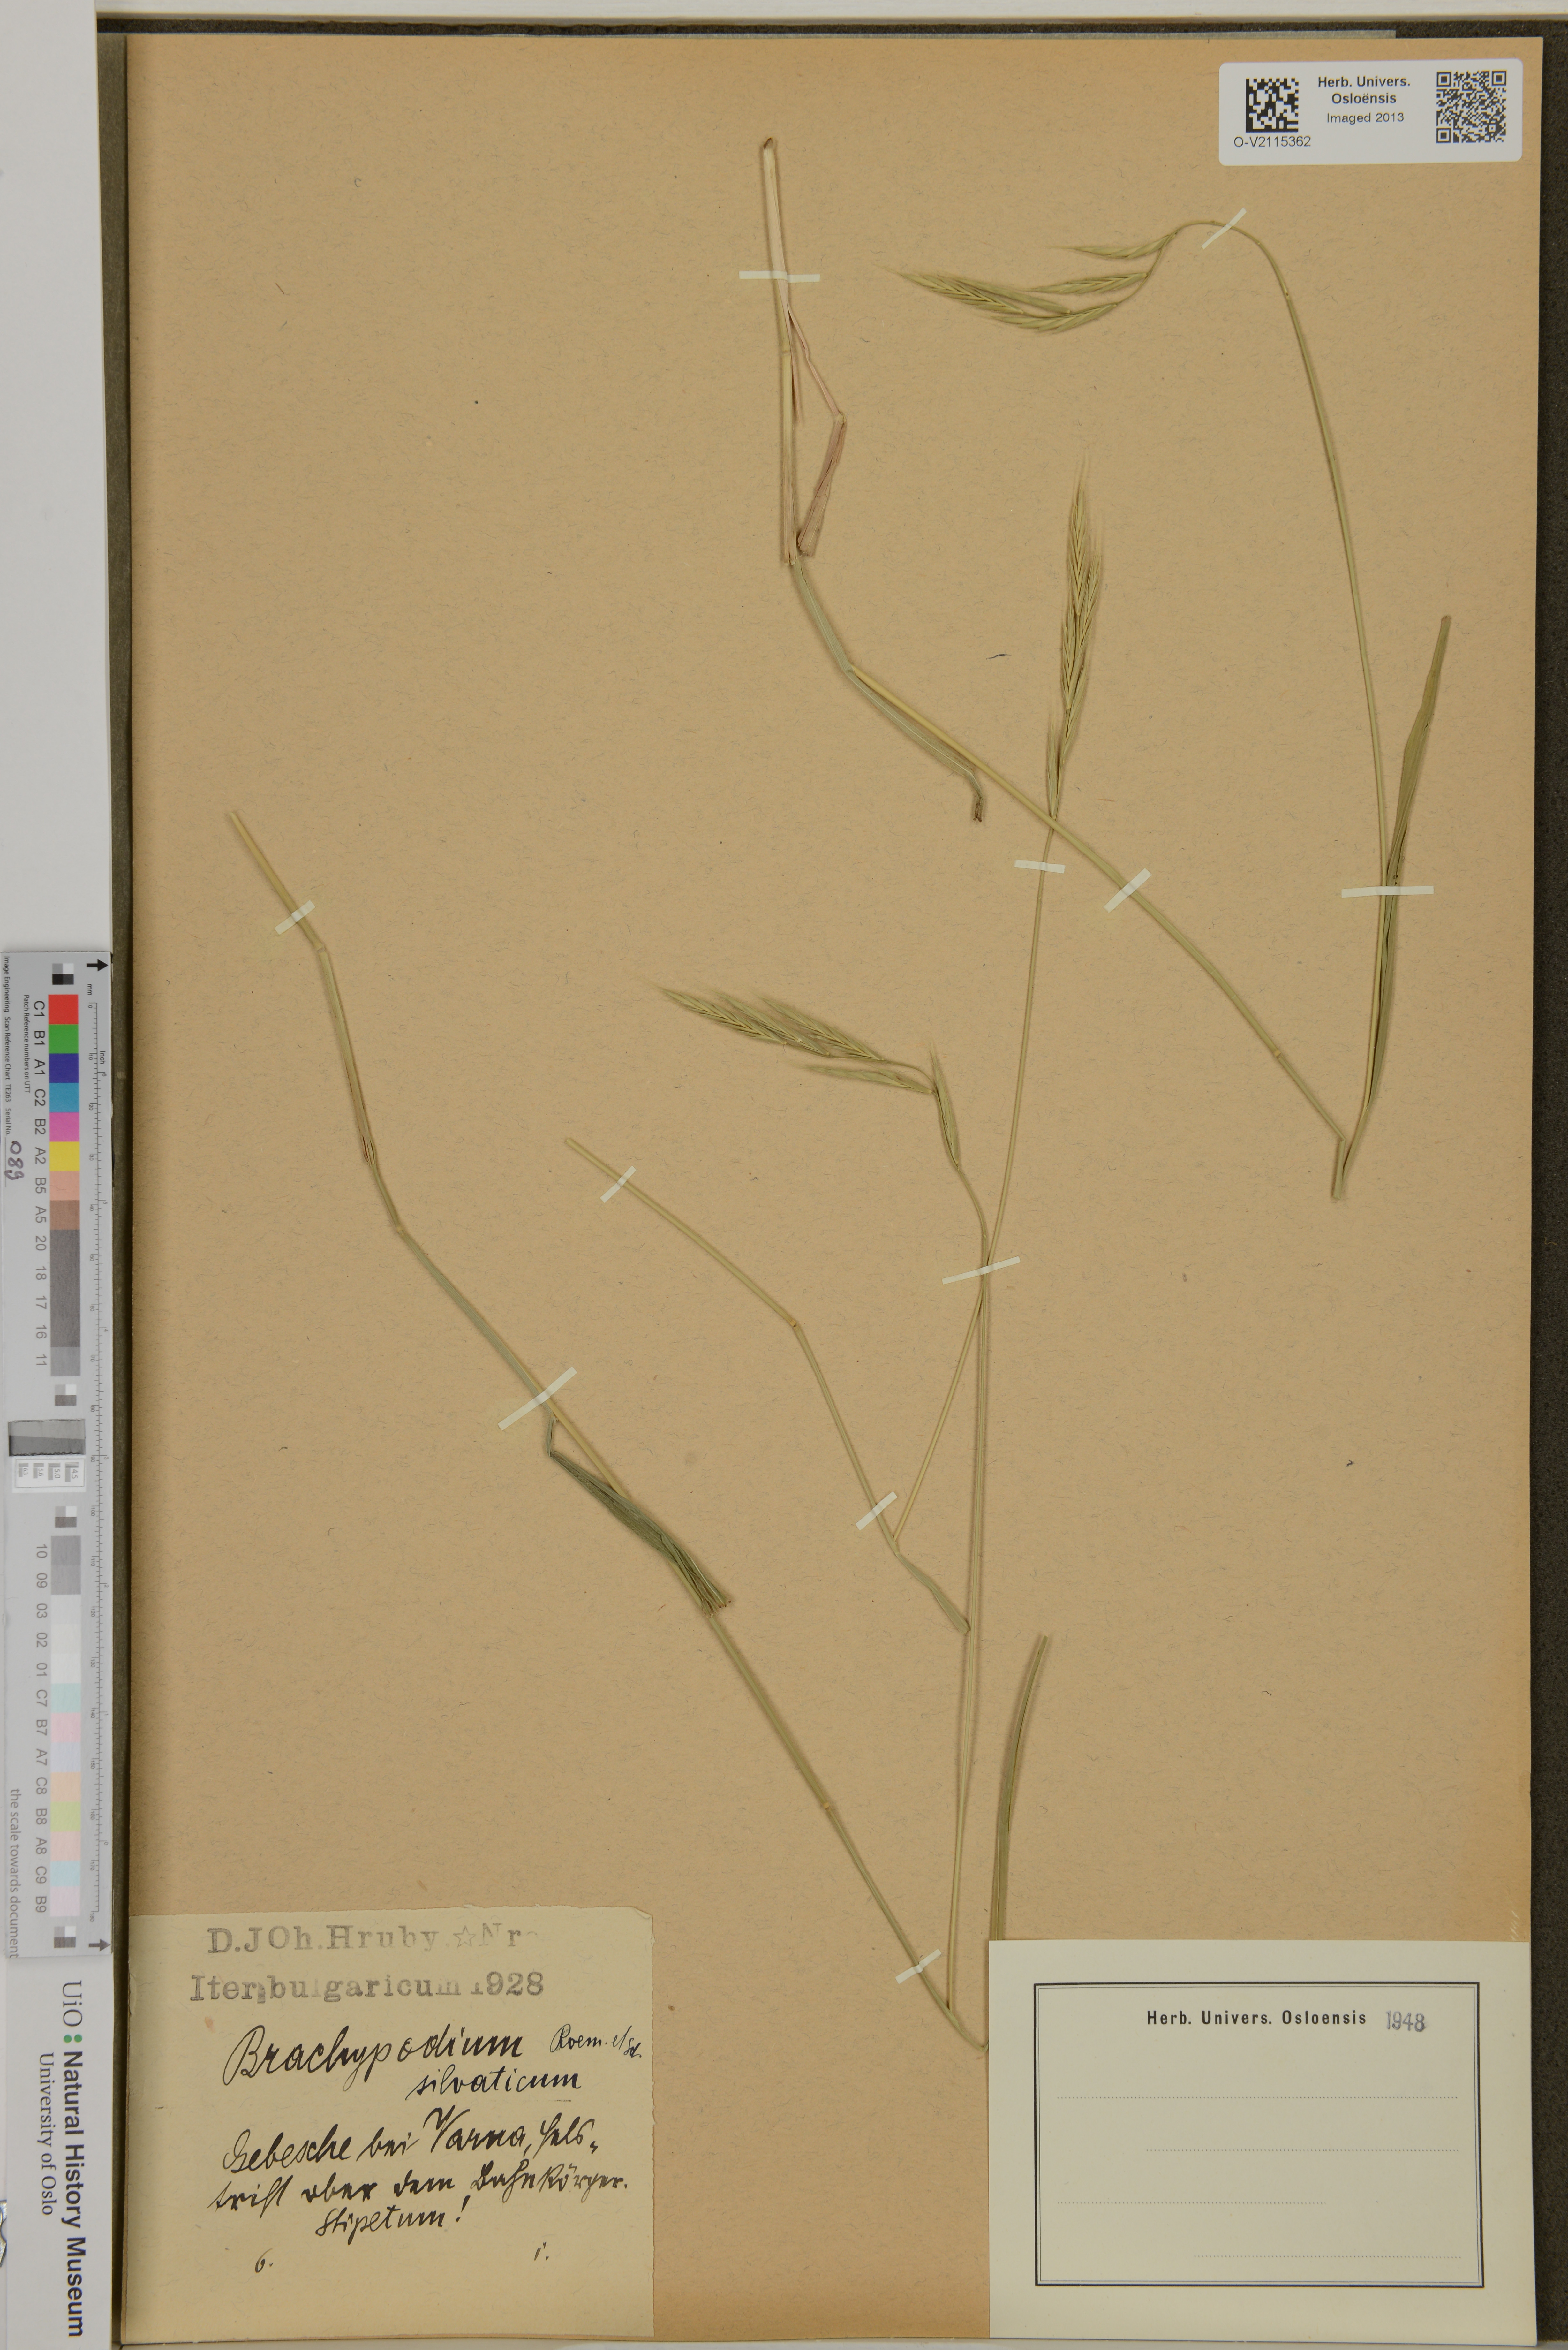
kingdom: Plantae
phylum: Tracheophyta
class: Liliopsida
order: Poales
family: Poaceae
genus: Brachypodium
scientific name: Brachypodium sylvaticum
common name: False-brome
